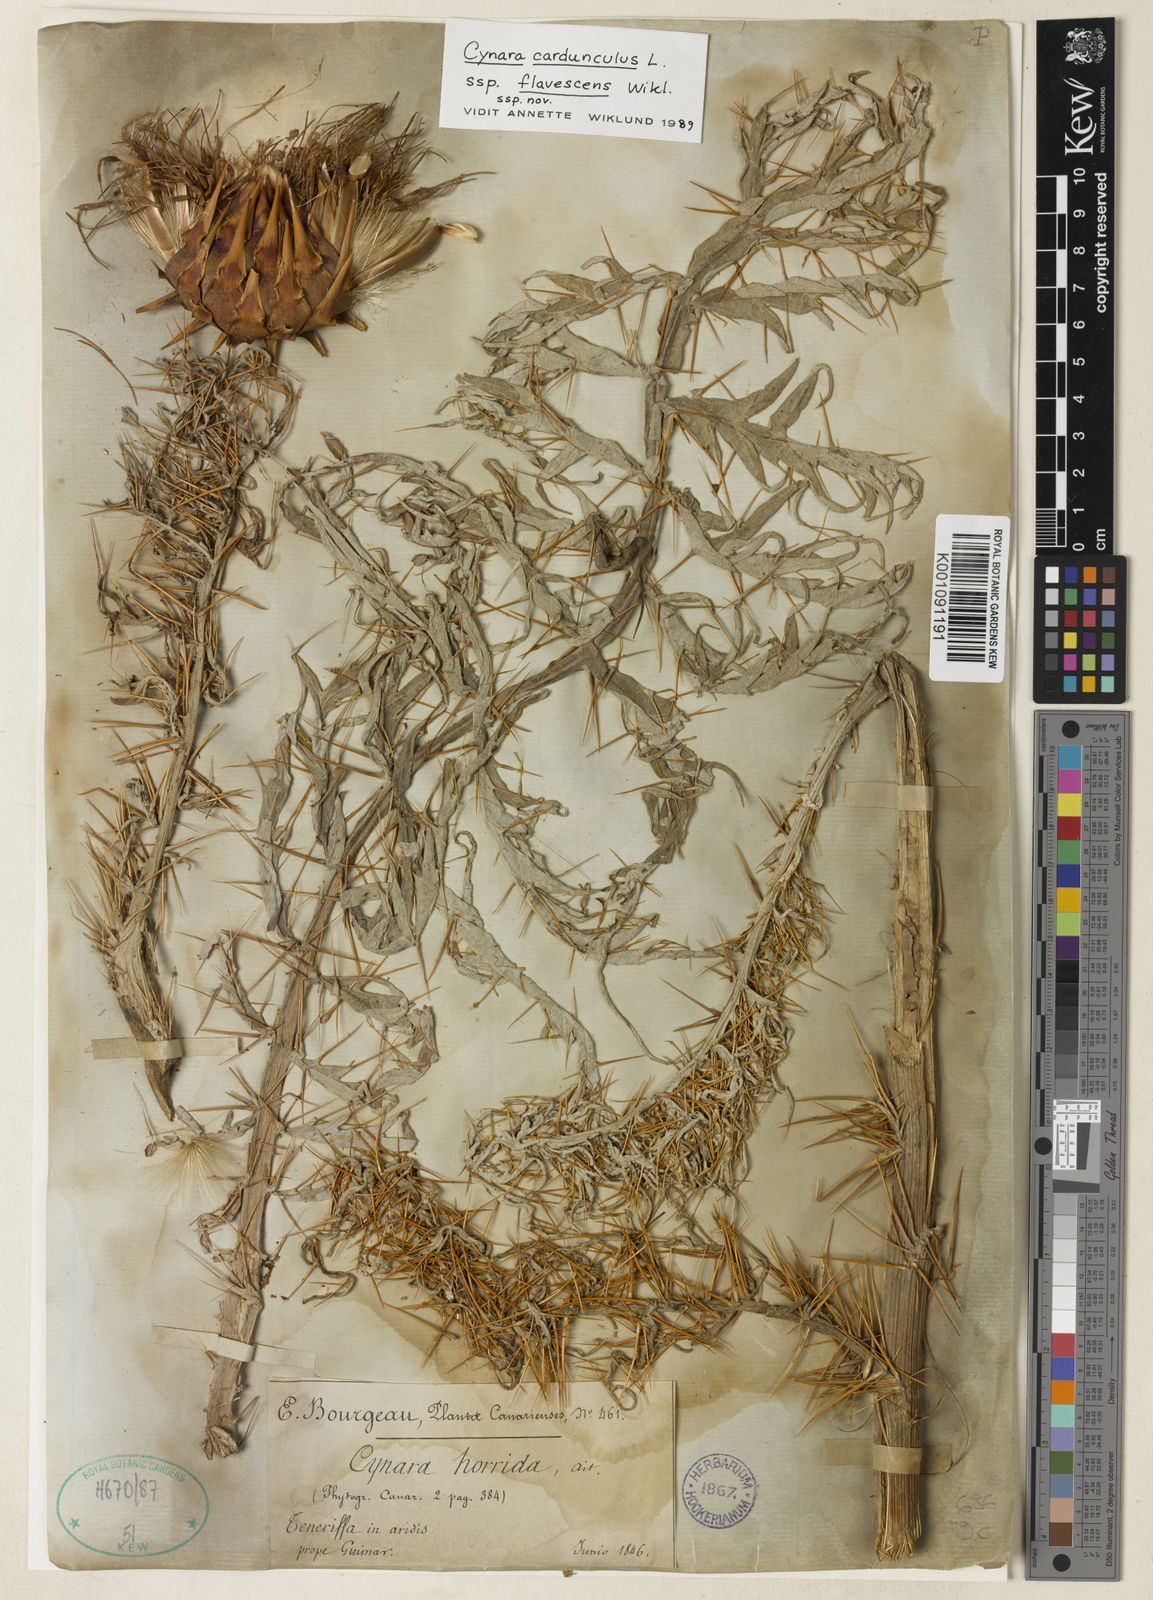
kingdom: Plantae
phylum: Tracheophyta
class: Magnoliopsida
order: Asterales
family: Asteraceae
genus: Cynara
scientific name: Cynara cardunculus
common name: Globe artichoke
